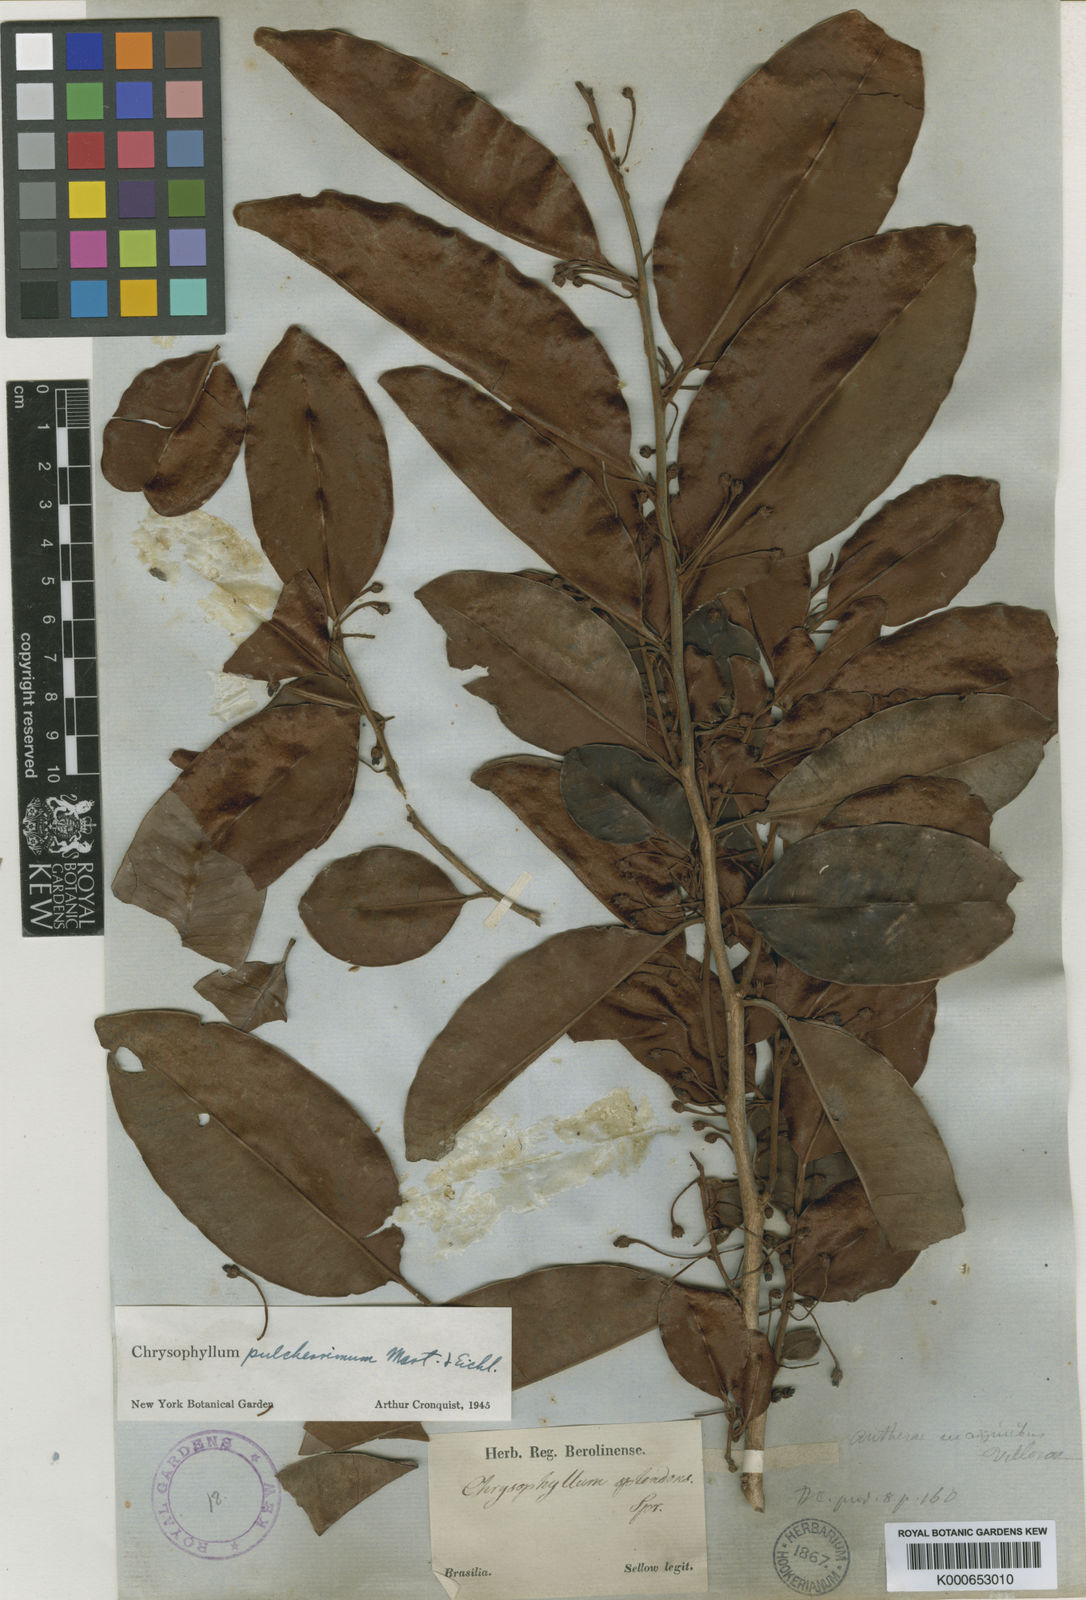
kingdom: Plantae
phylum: Tracheophyta
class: Magnoliopsida
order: Ericales
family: Sapotaceae
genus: Chrysophyllum
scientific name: Chrysophyllum splendens
